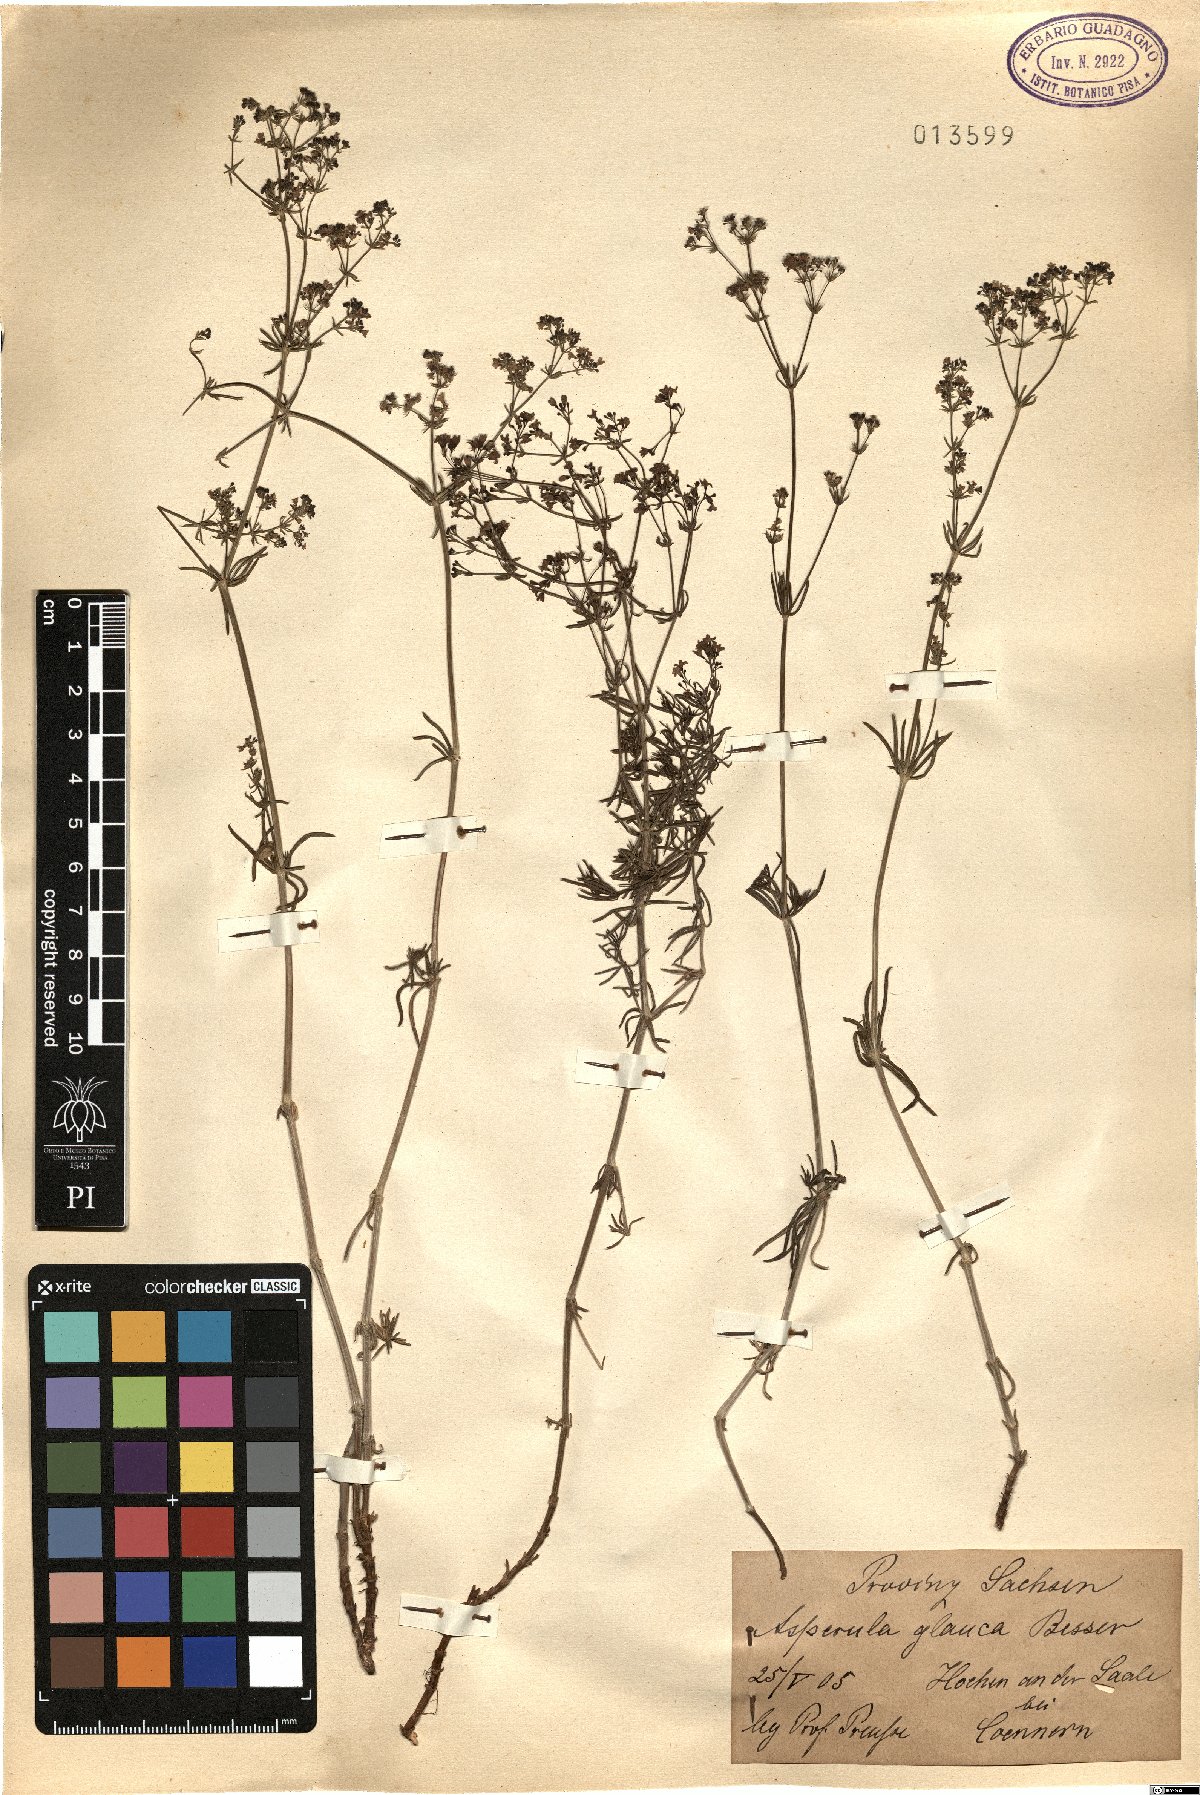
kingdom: Plantae
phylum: Tracheophyta
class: Magnoliopsida
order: Gentianales
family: Rubiaceae
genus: Galium
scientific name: Galium glaucum
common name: Waxy bedstraw
